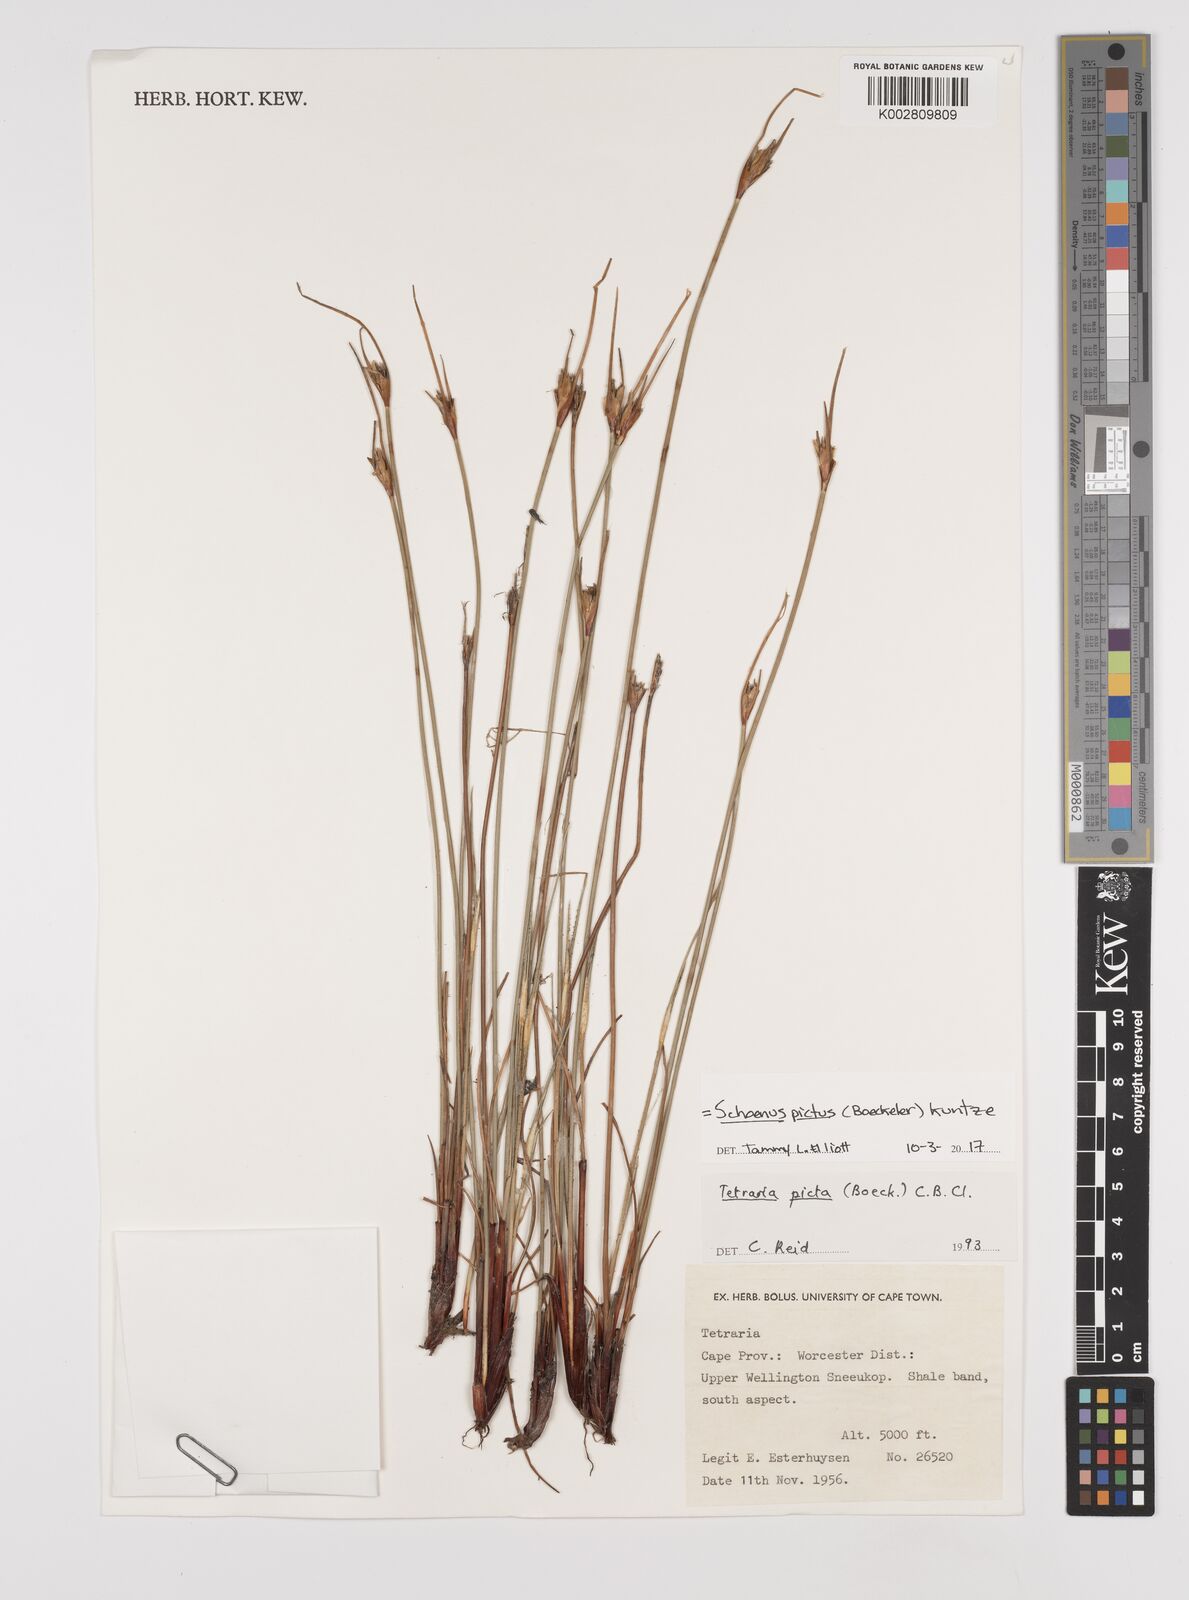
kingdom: Plantae
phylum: Tracheophyta
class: Liliopsida
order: Poales
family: Cyperaceae
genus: Schoenus
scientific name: Schoenus pictus
